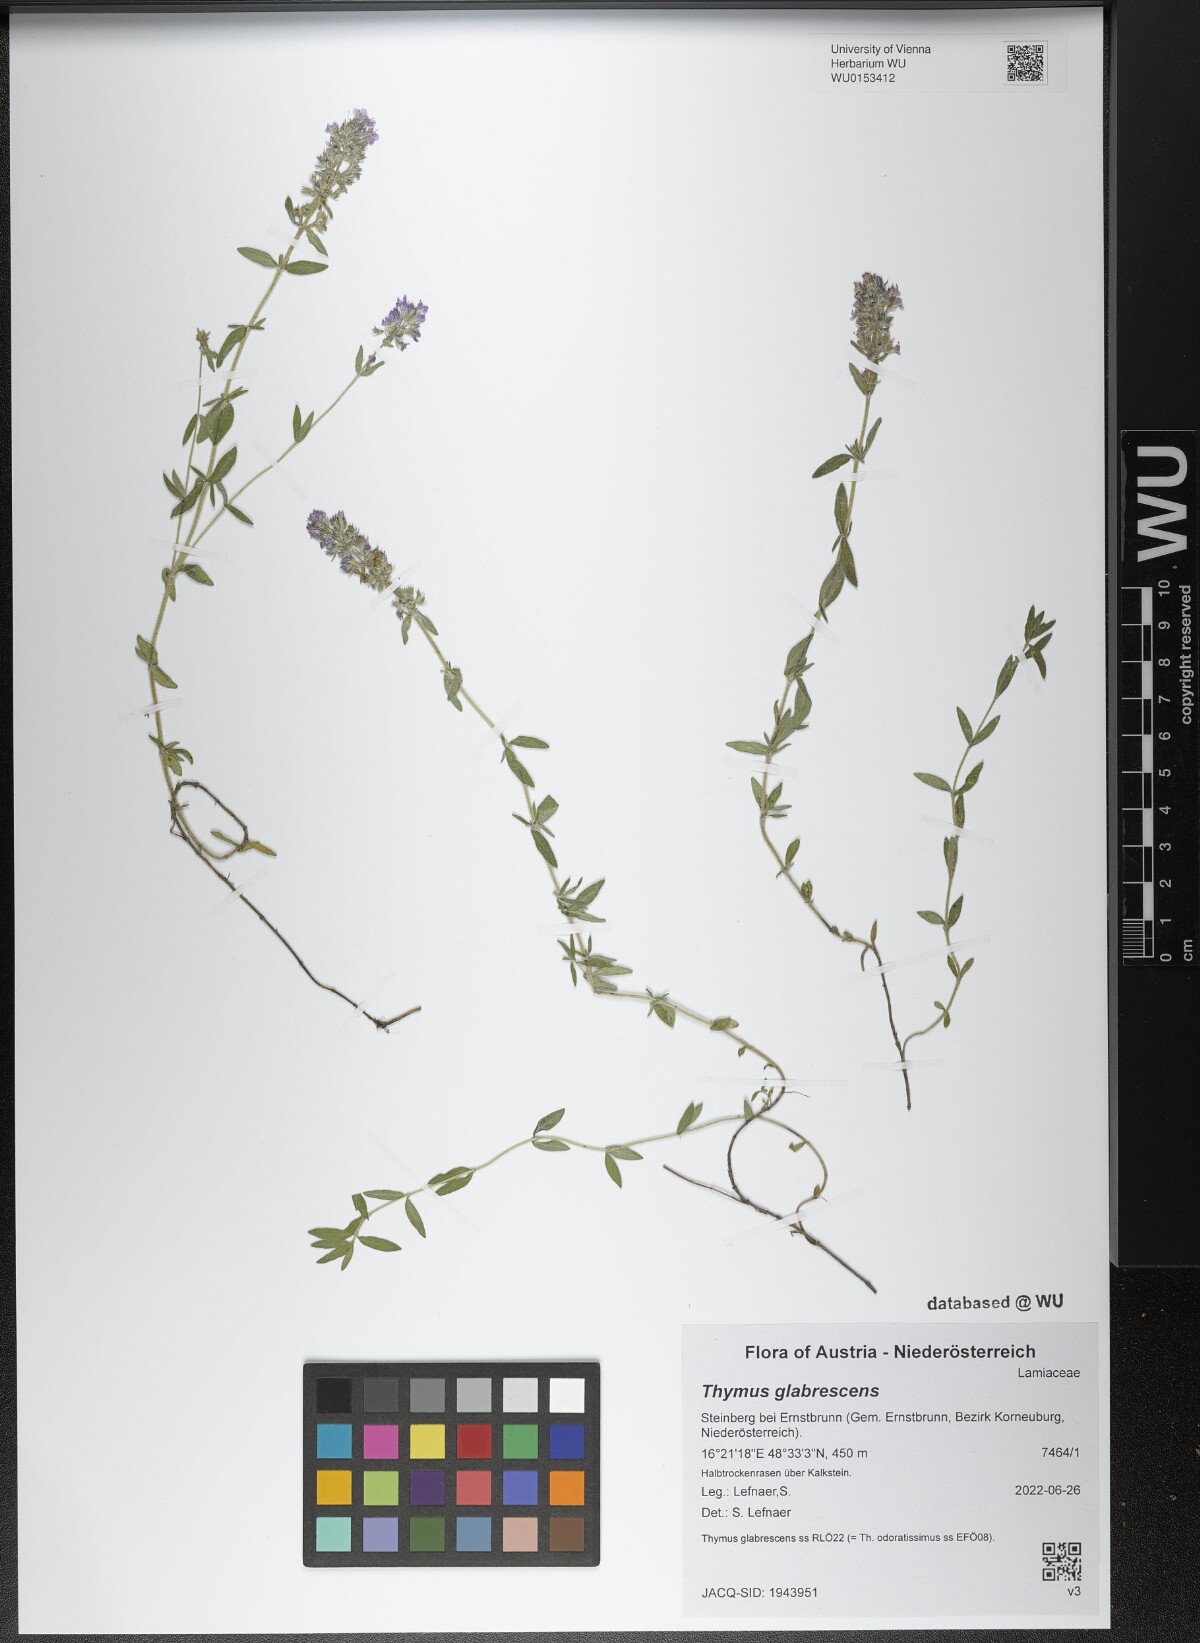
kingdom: Plantae
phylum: Tracheophyta
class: Magnoliopsida
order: Lamiales
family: Lamiaceae
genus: Thymus
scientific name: Thymus odoratissimus
